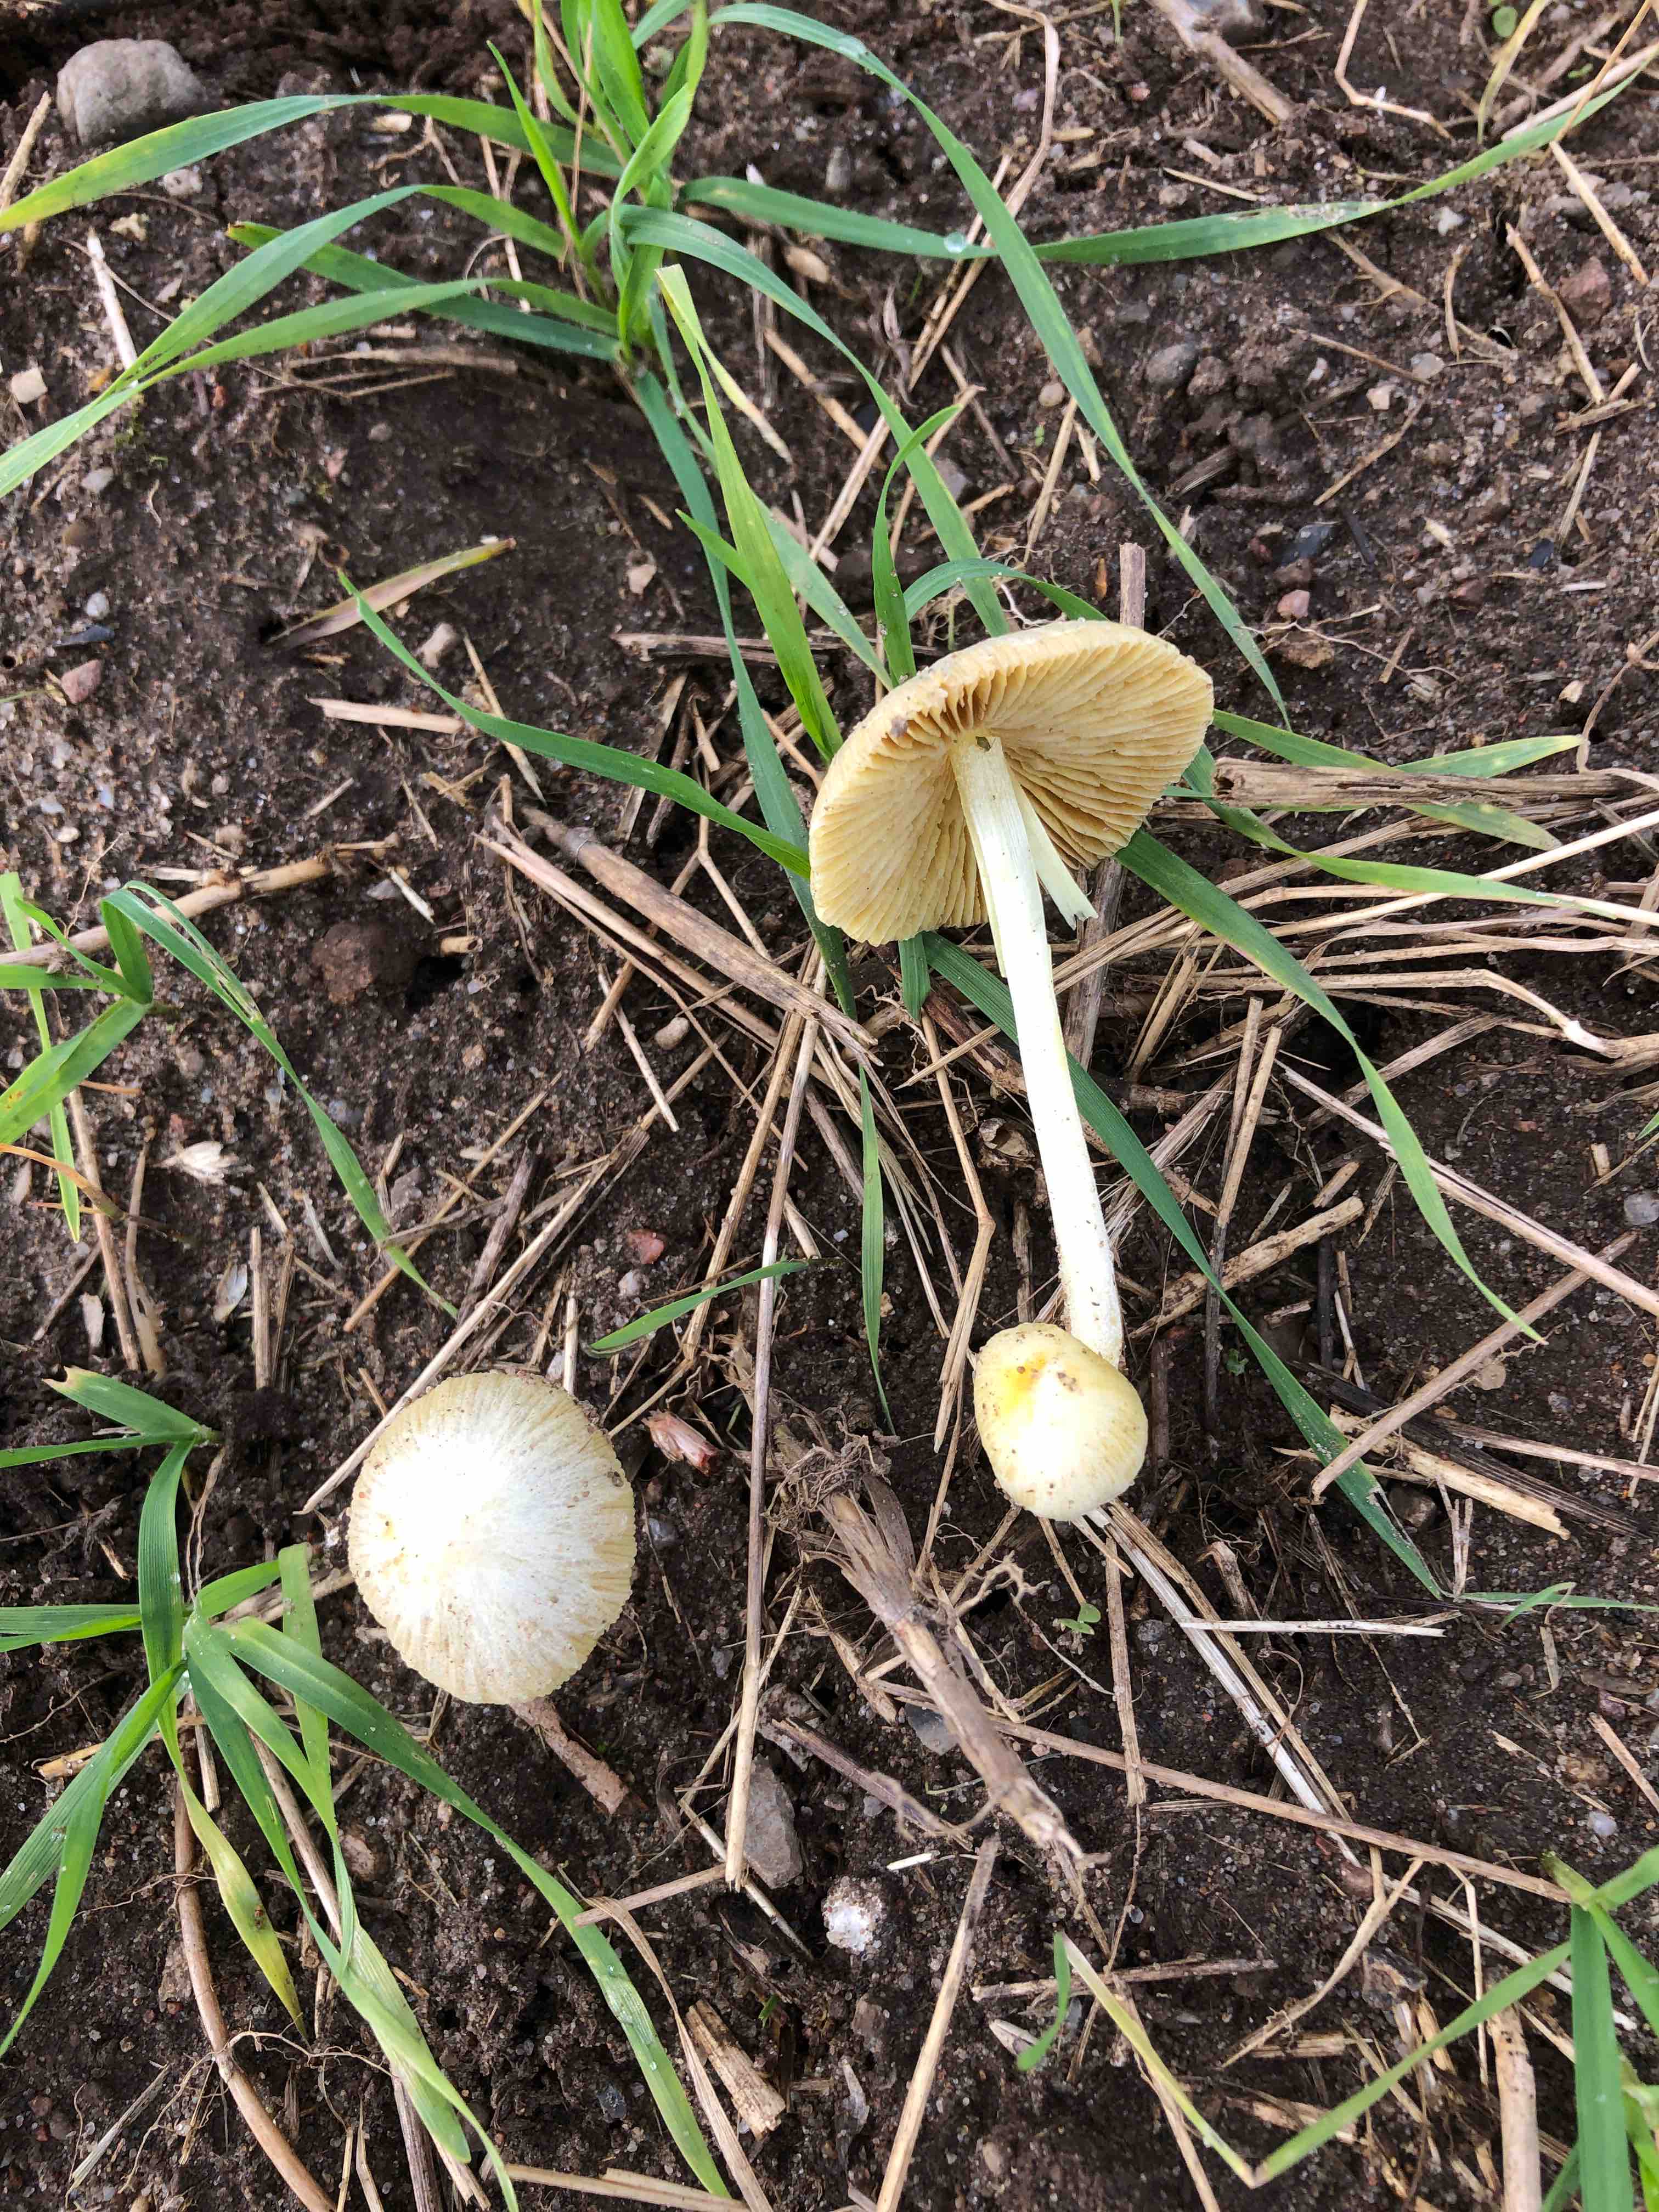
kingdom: Fungi
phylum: Basidiomycota
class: Agaricomycetes
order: Agaricales
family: Bolbitiaceae
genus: Bolbitius
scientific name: Bolbitius titubans
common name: almindelig gulhat
